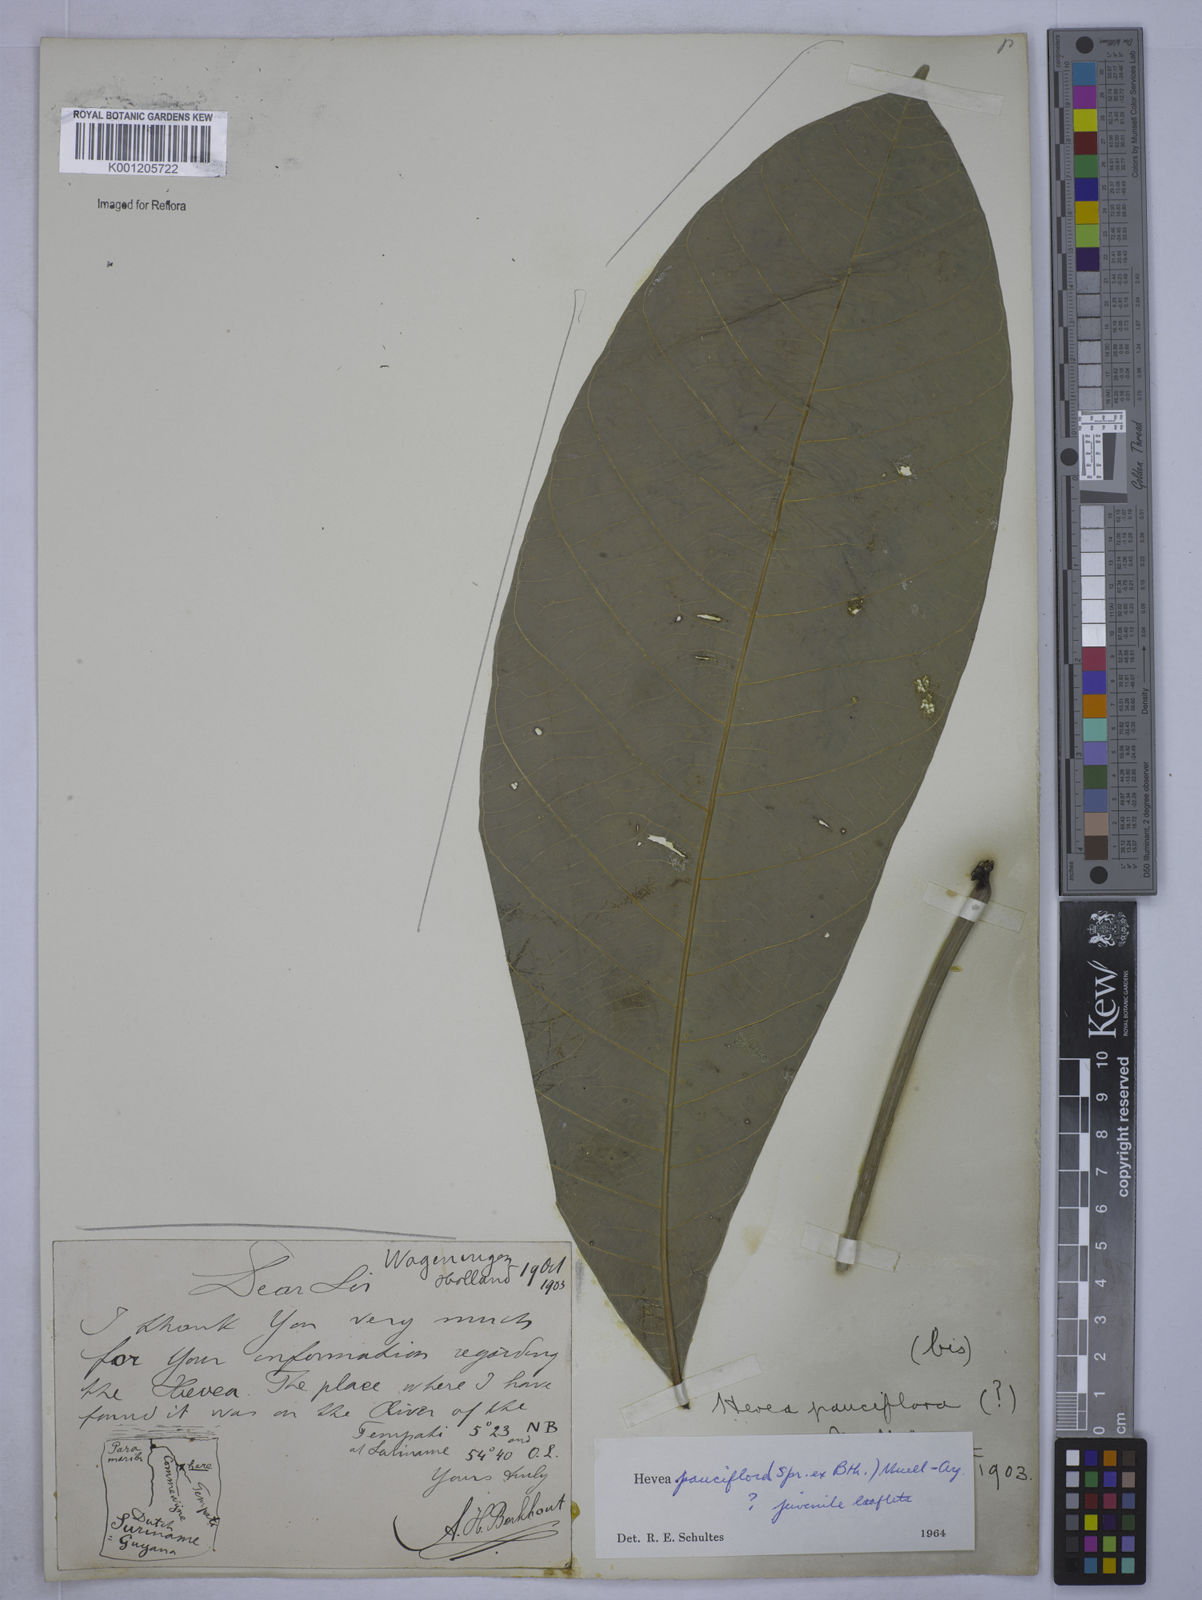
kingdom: Plantae
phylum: Tracheophyta
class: Magnoliopsida
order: Malpighiales
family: Euphorbiaceae
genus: Hevea
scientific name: Hevea
